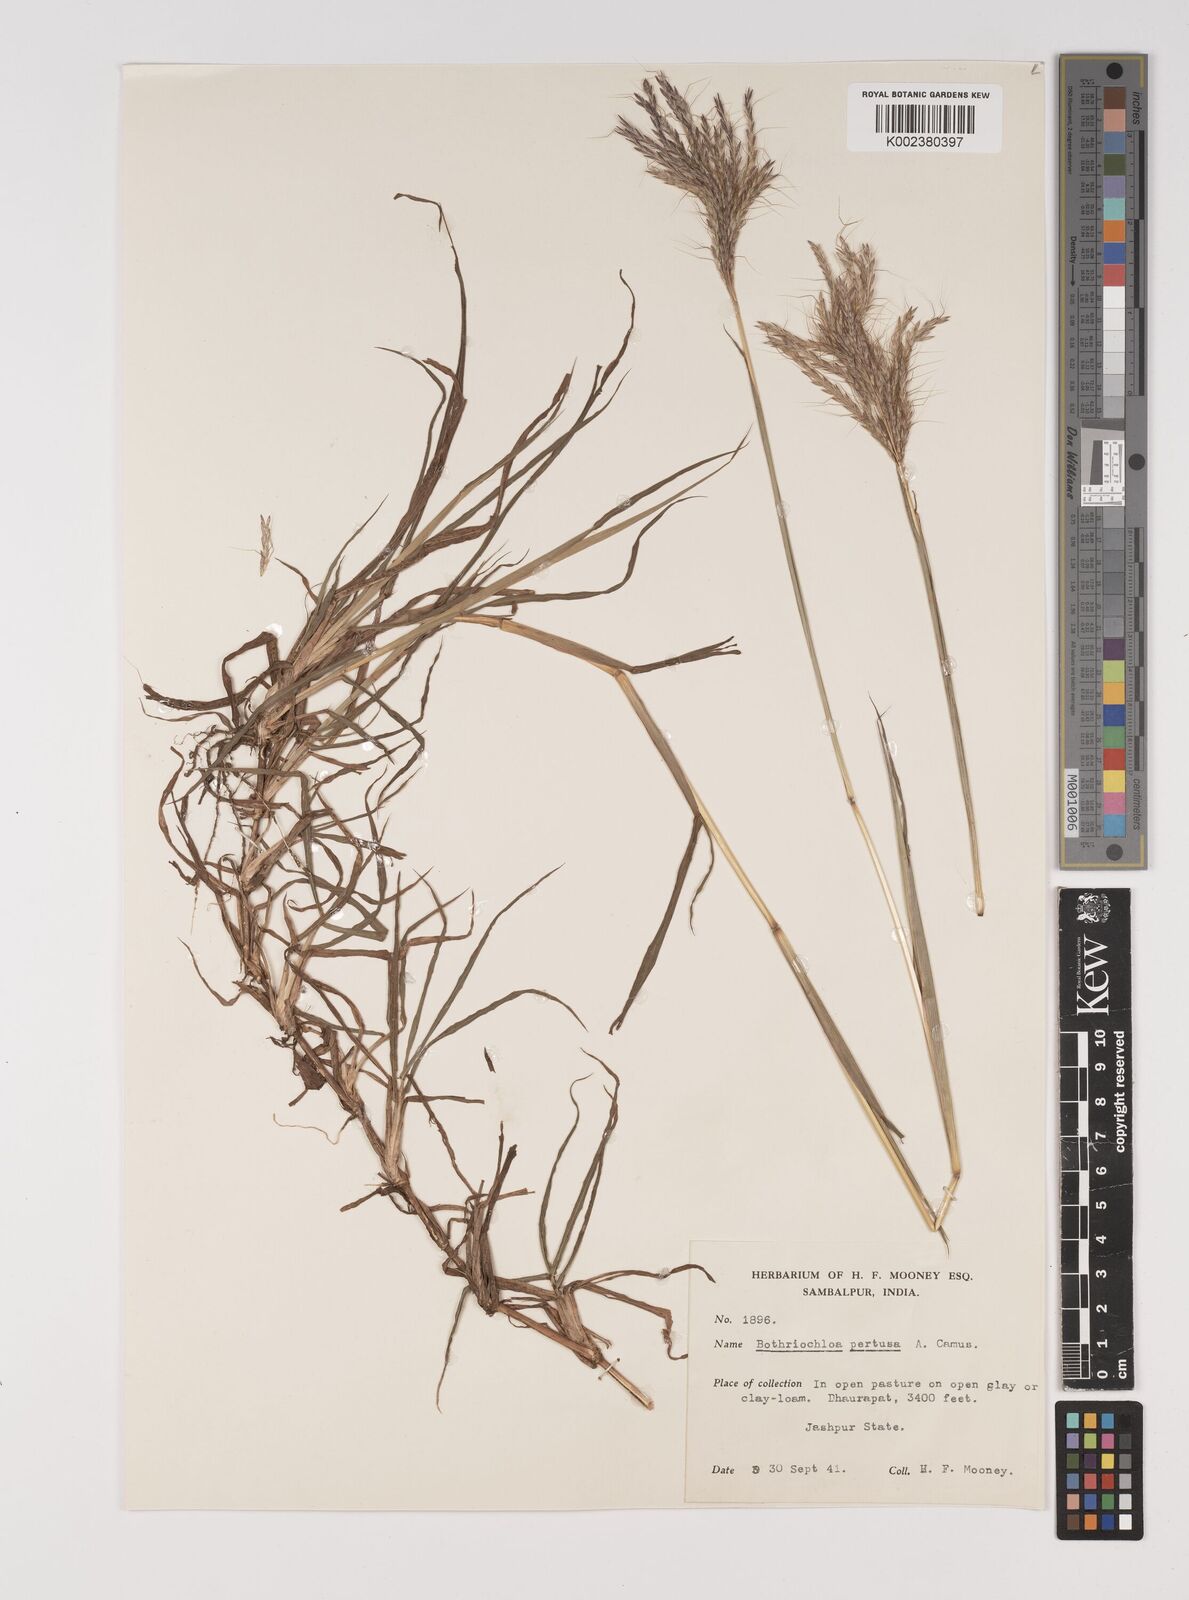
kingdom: Plantae
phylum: Tracheophyta
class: Liliopsida
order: Poales
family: Poaceae
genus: Bothriochloa
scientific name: Bothriochloa pertusa
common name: Pitted beardgrass
